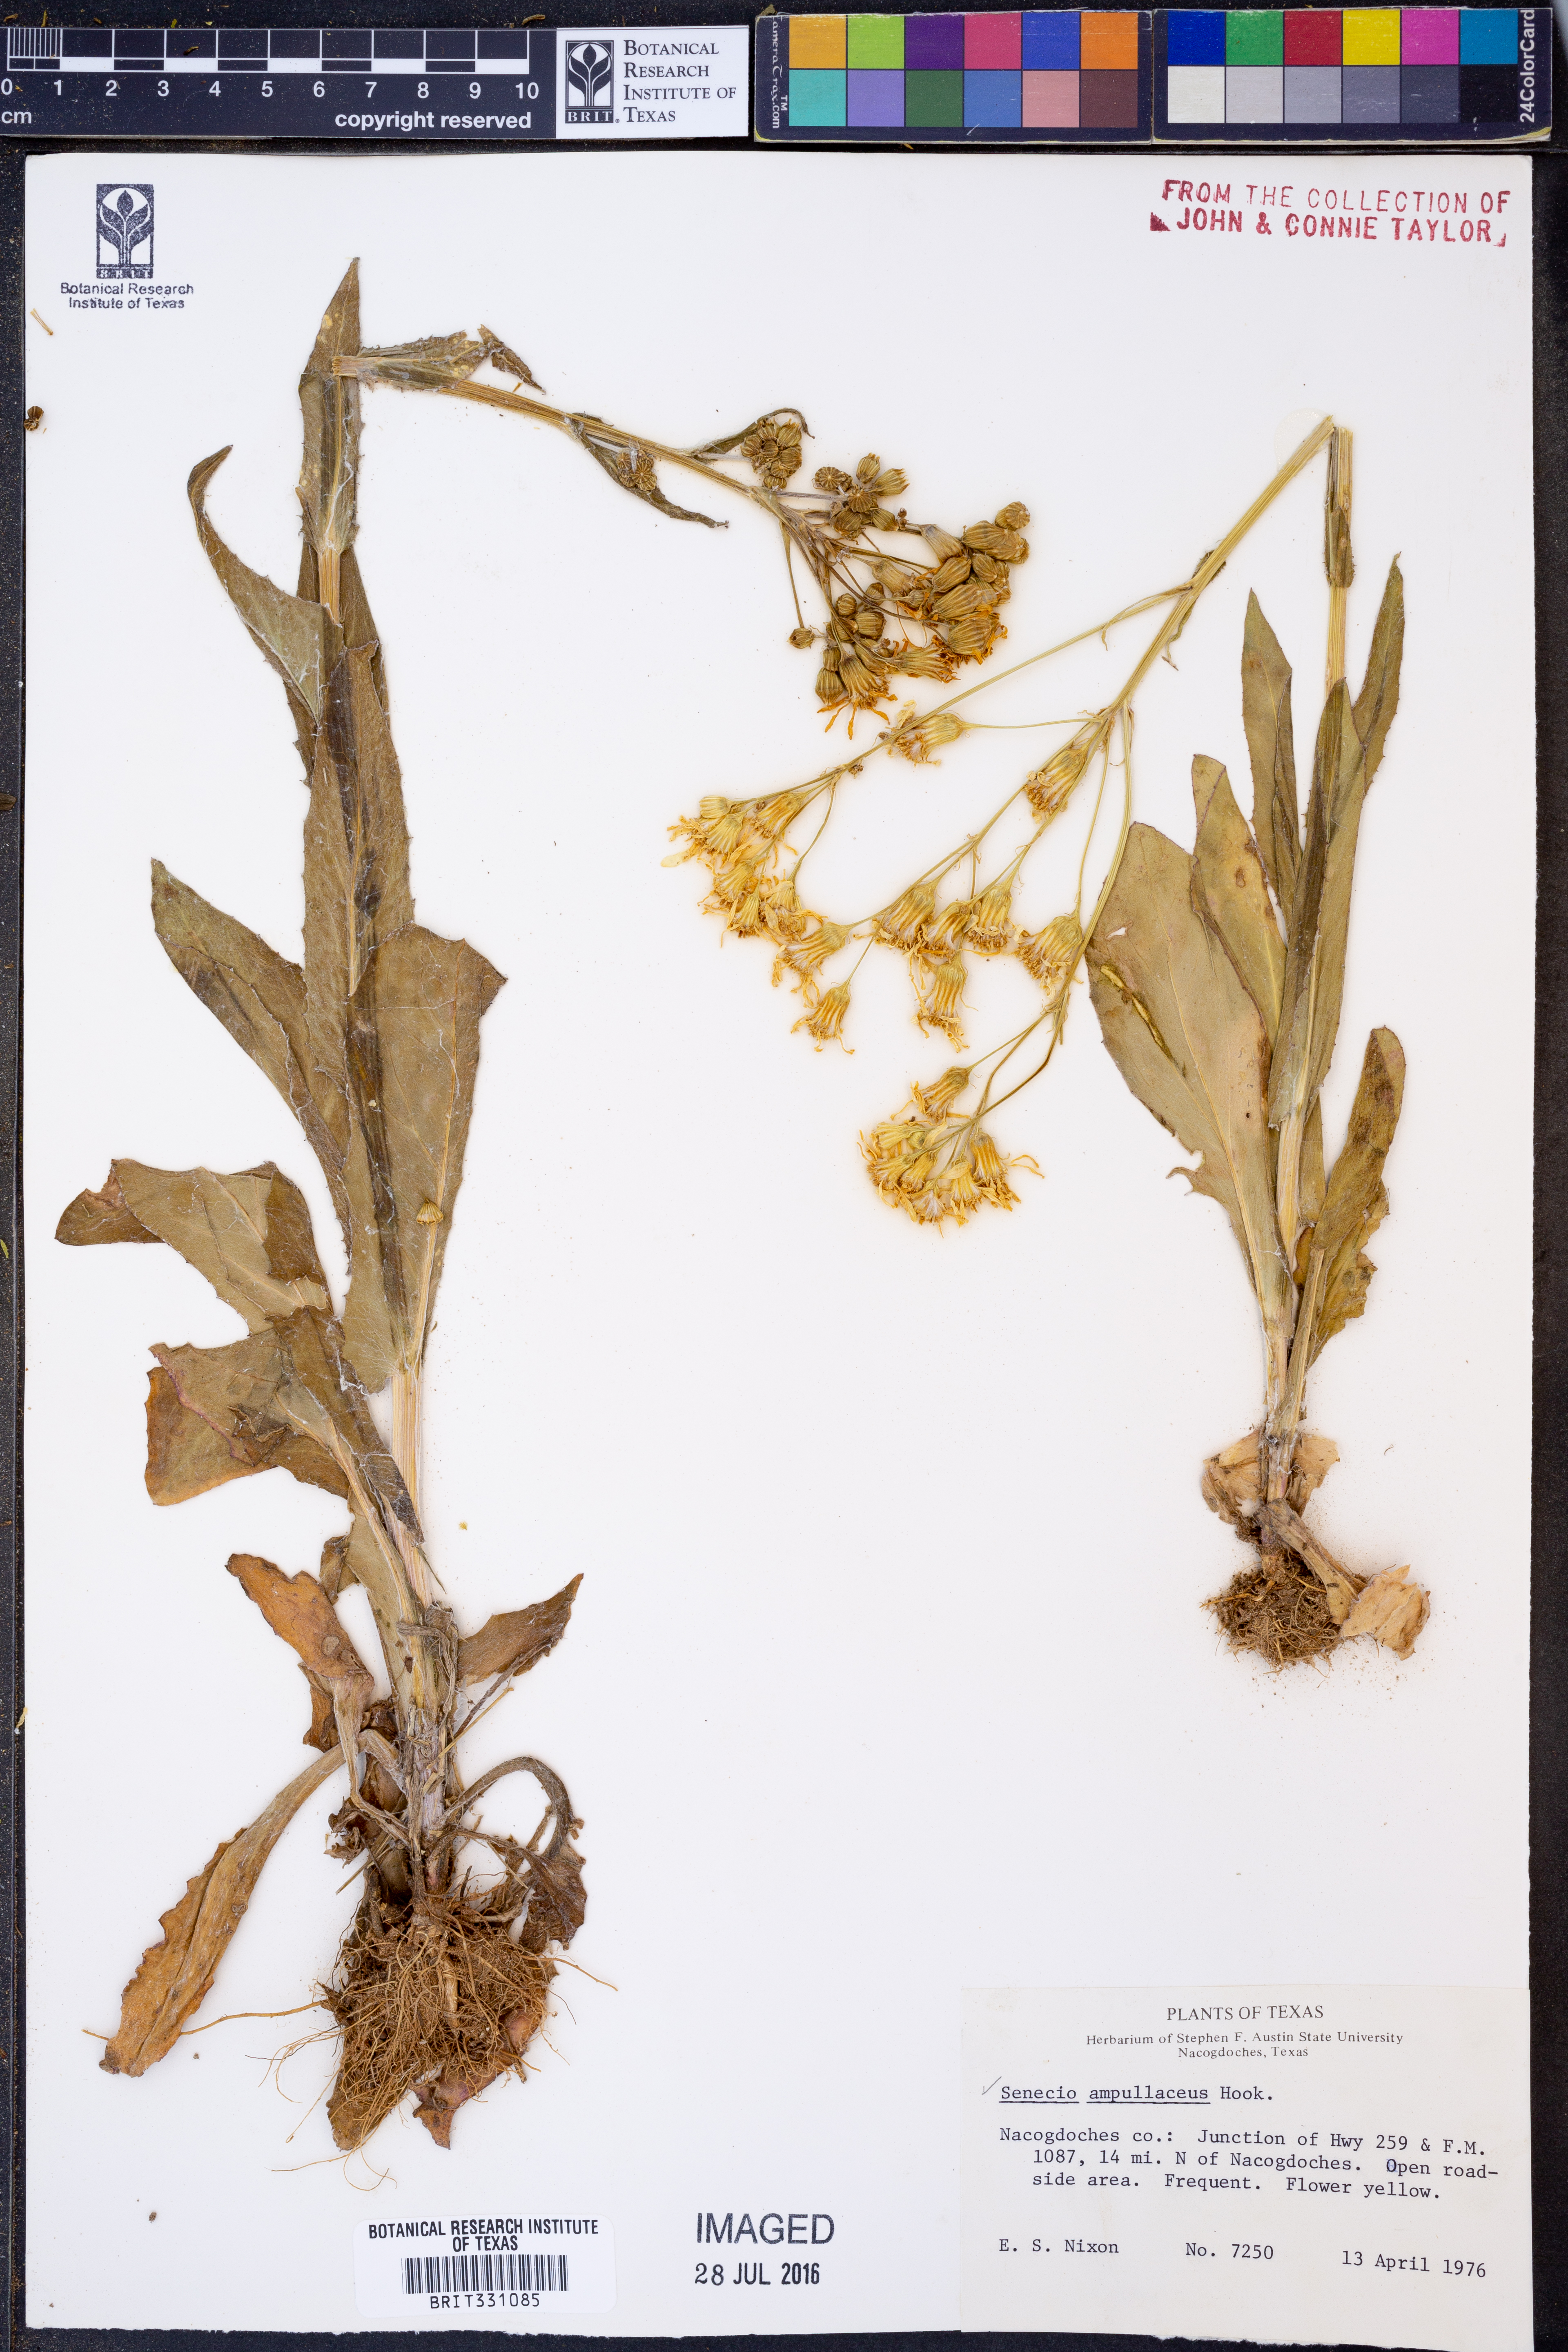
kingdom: Plantae
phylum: Tracheophyta
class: Magnoliopsida
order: Asterales
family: Asteraceae
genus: Senecio
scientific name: Senecio ampullaceus
